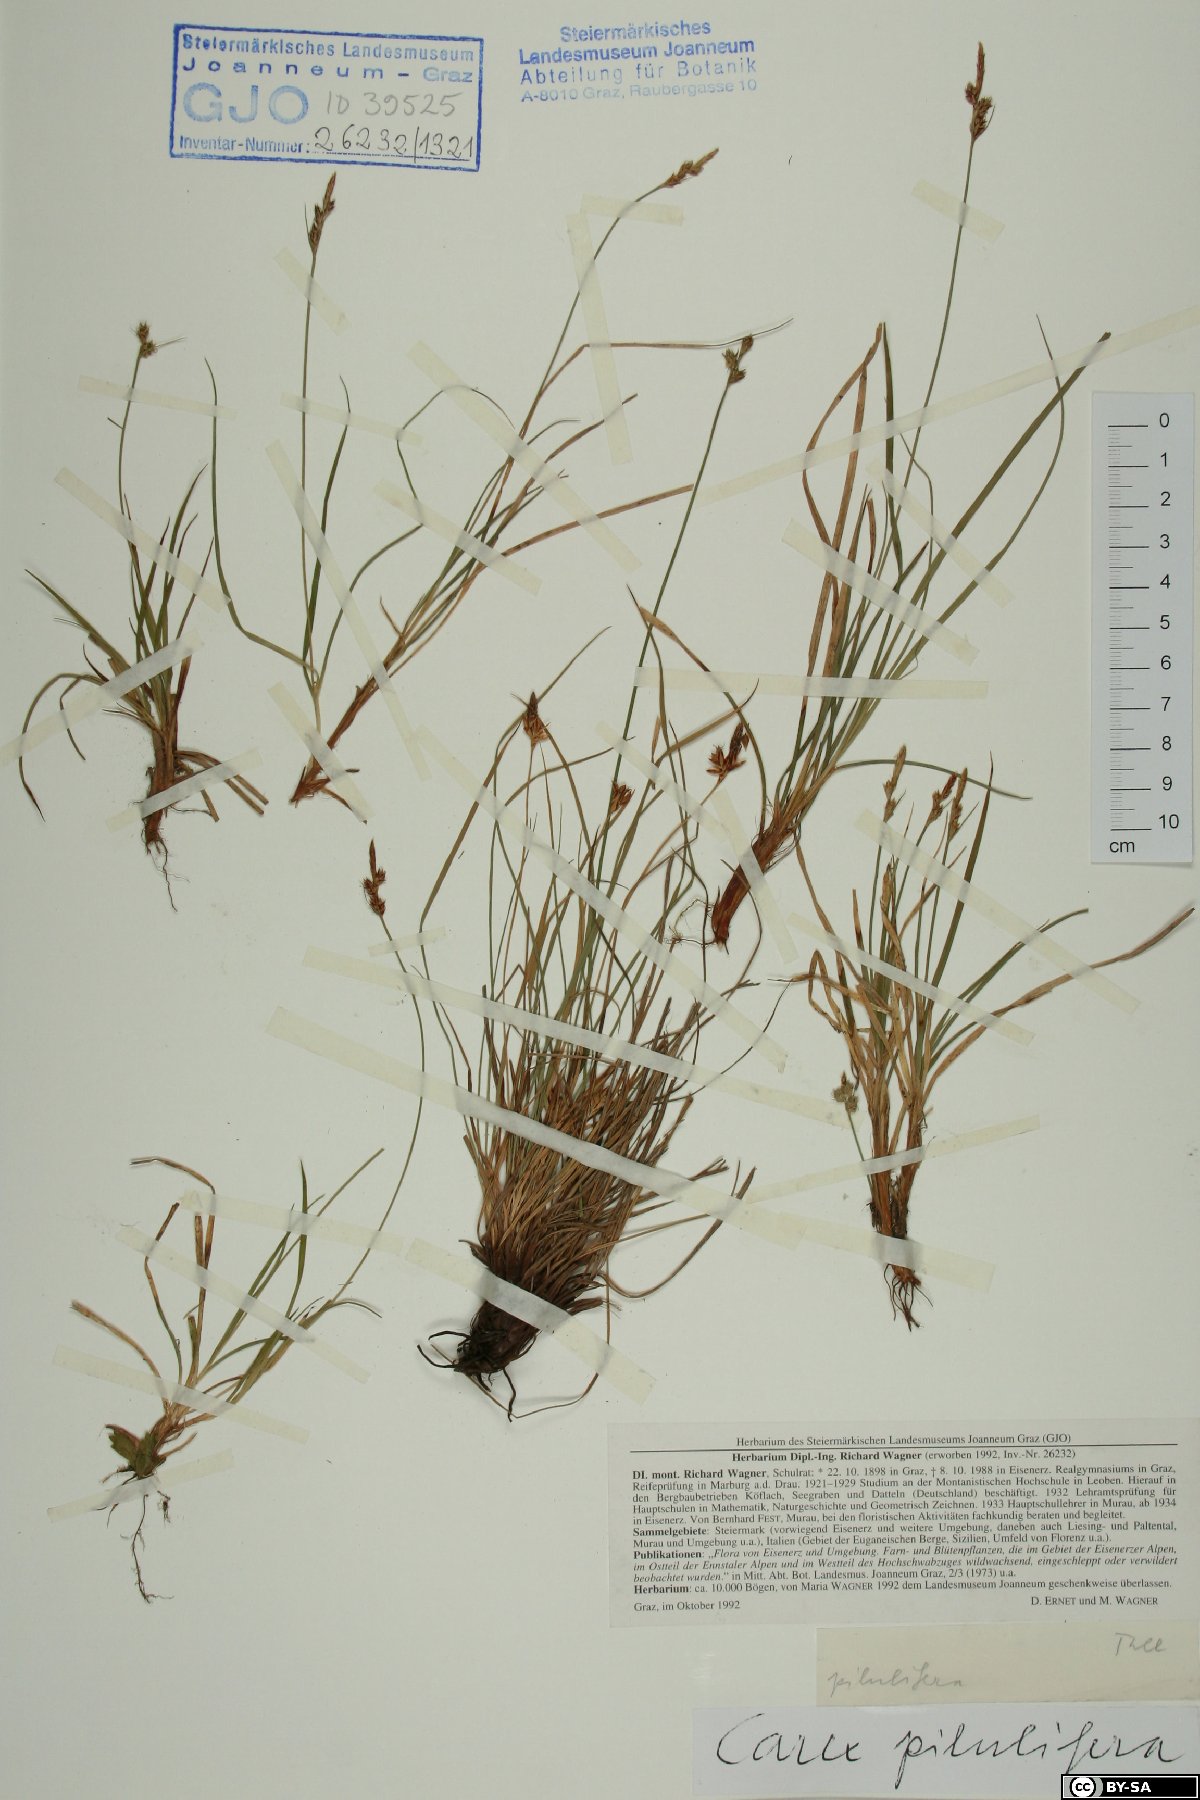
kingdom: Plantae
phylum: Tracheophyta
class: Liliopsida
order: Poales
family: Cyperaceae
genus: Carex
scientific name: Carex pilulifera
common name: Pill sedge
